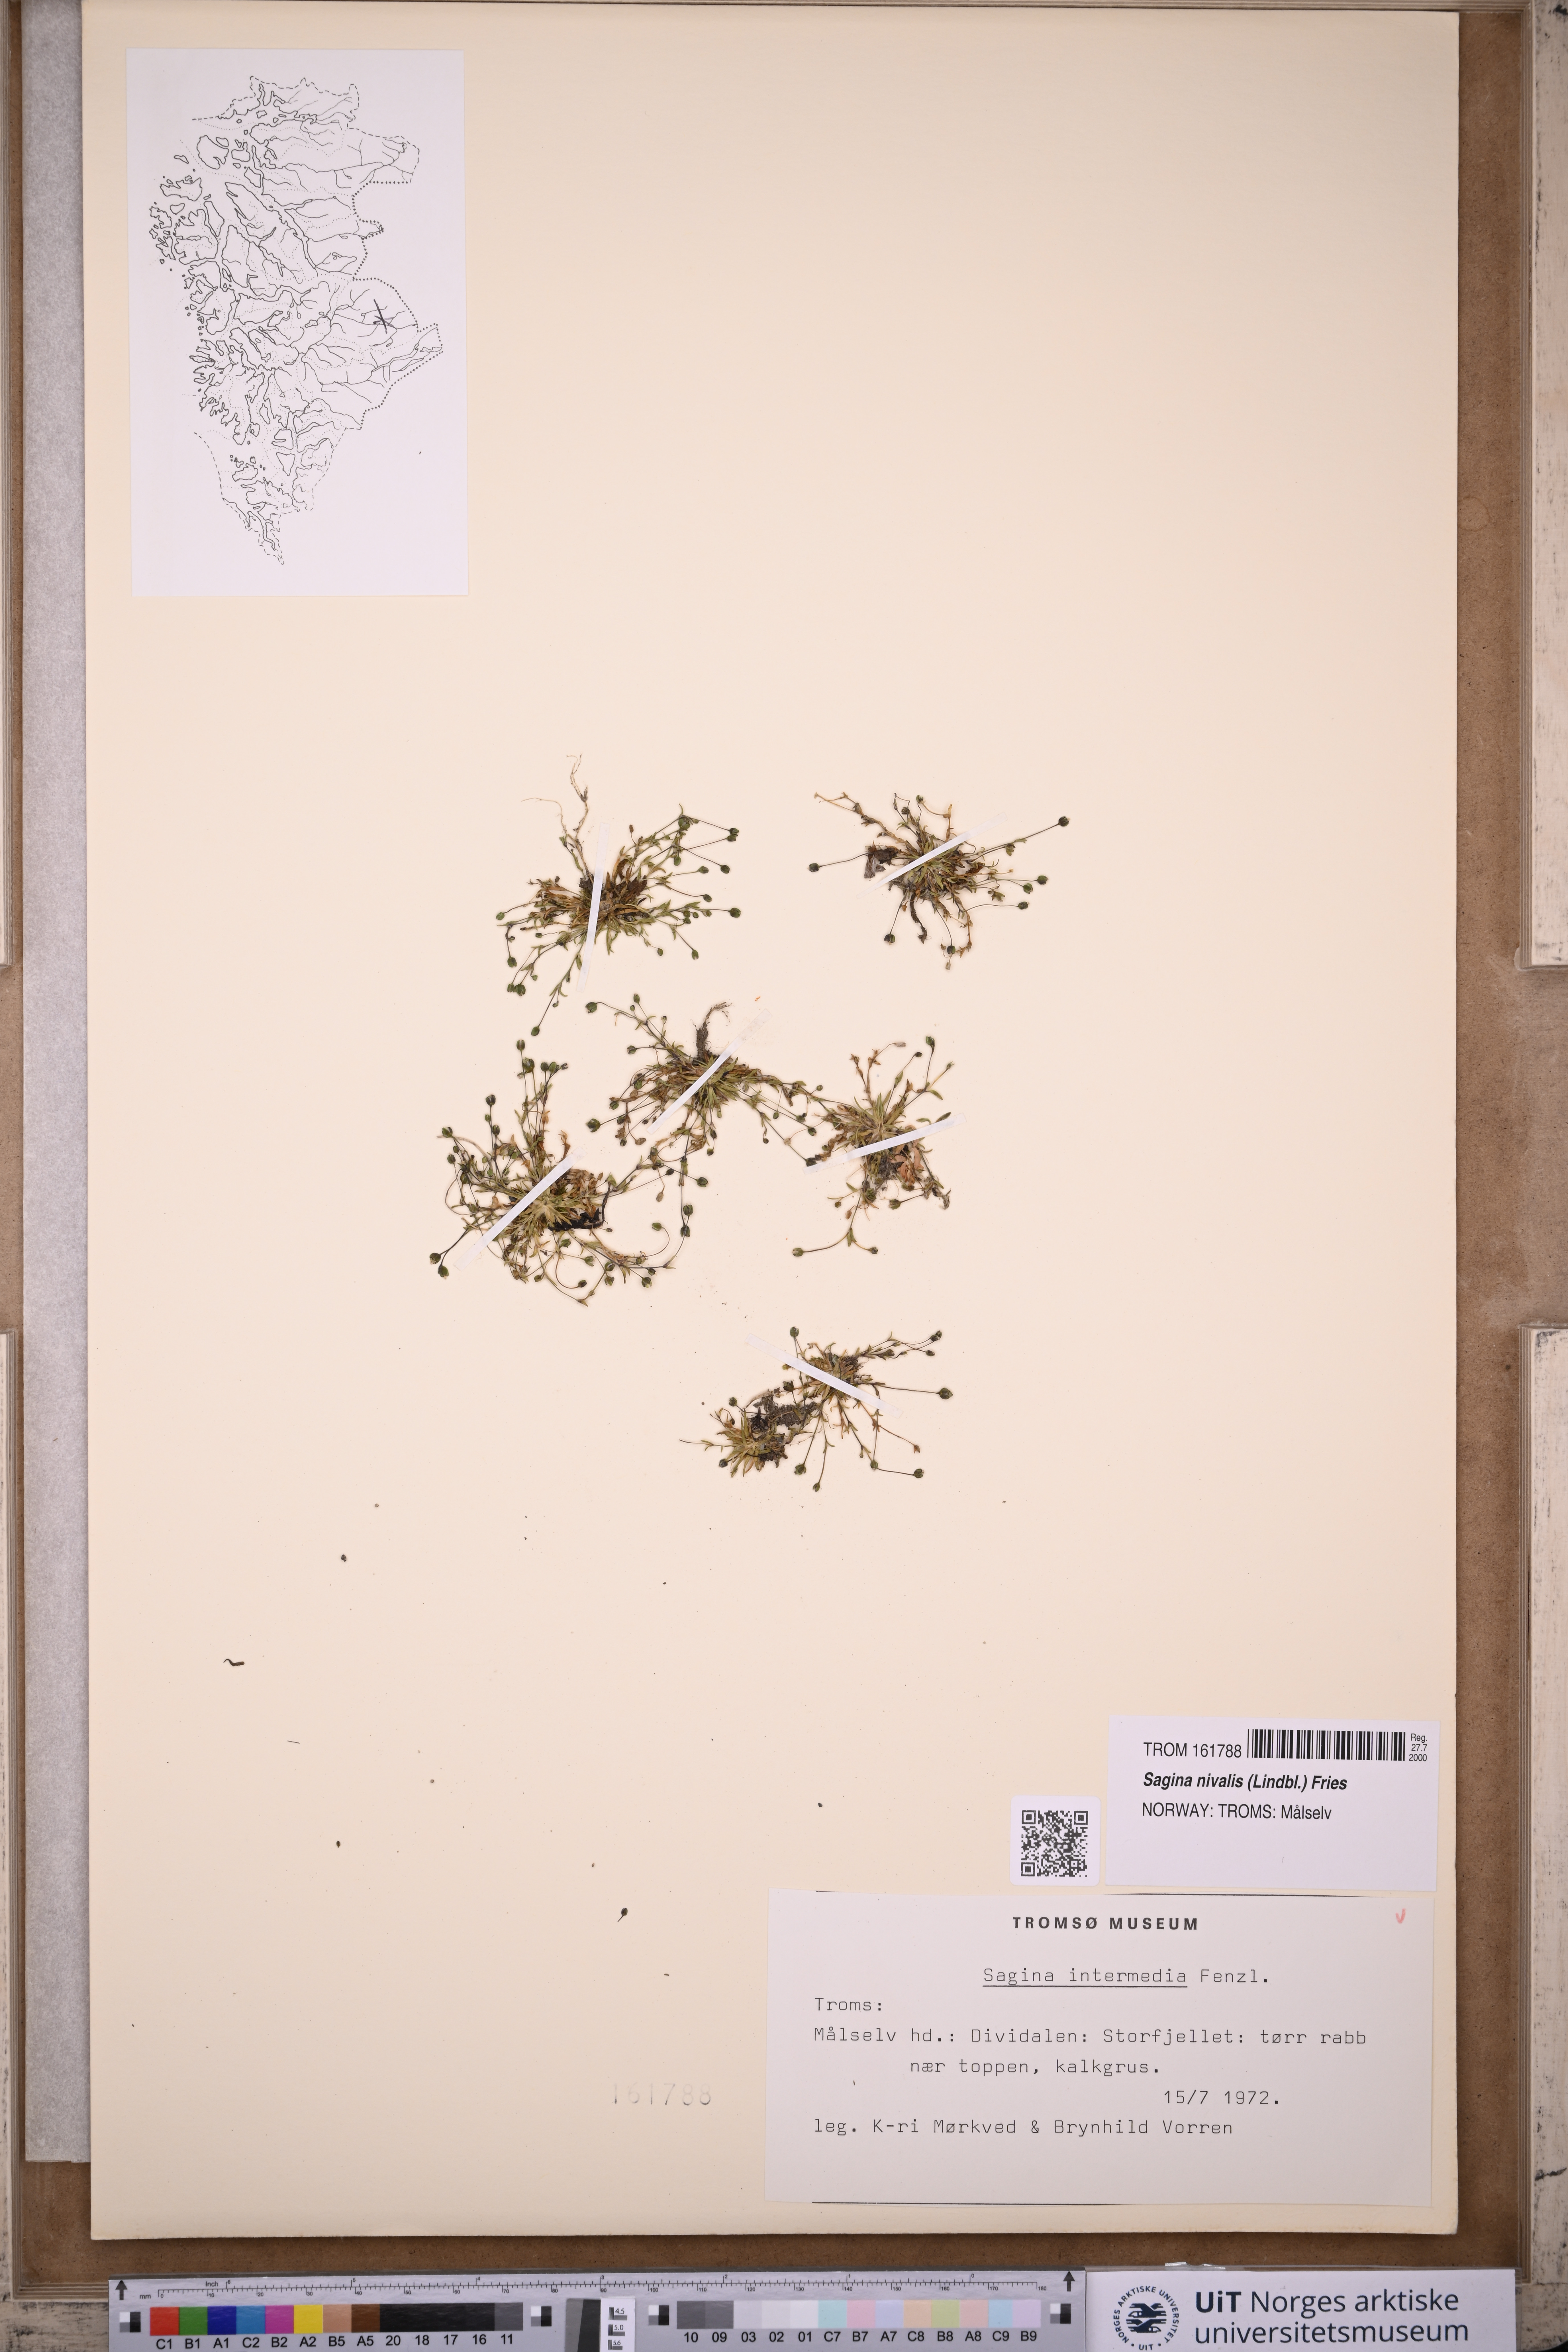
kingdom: Plantae
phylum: Tracheophyta
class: Magnoliopsida
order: Caryophyllales
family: Caryophyllaceae
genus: Sagina
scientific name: Sagina nivalis
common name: Snow pearlwort
